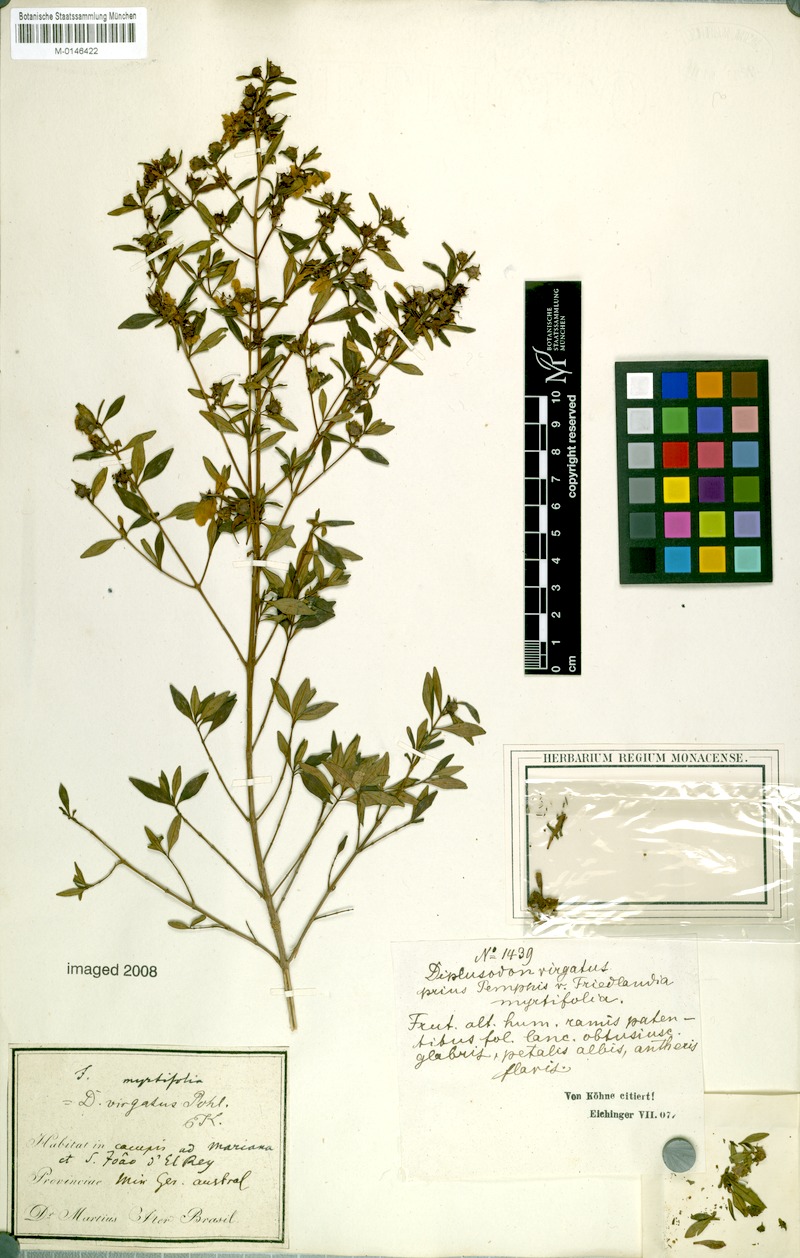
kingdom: Plantae
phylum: Tracheophyta
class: Magnoliopsida
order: Myrtales
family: Lythraceae
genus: Diplusodon
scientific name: Diplusodon virgatus
